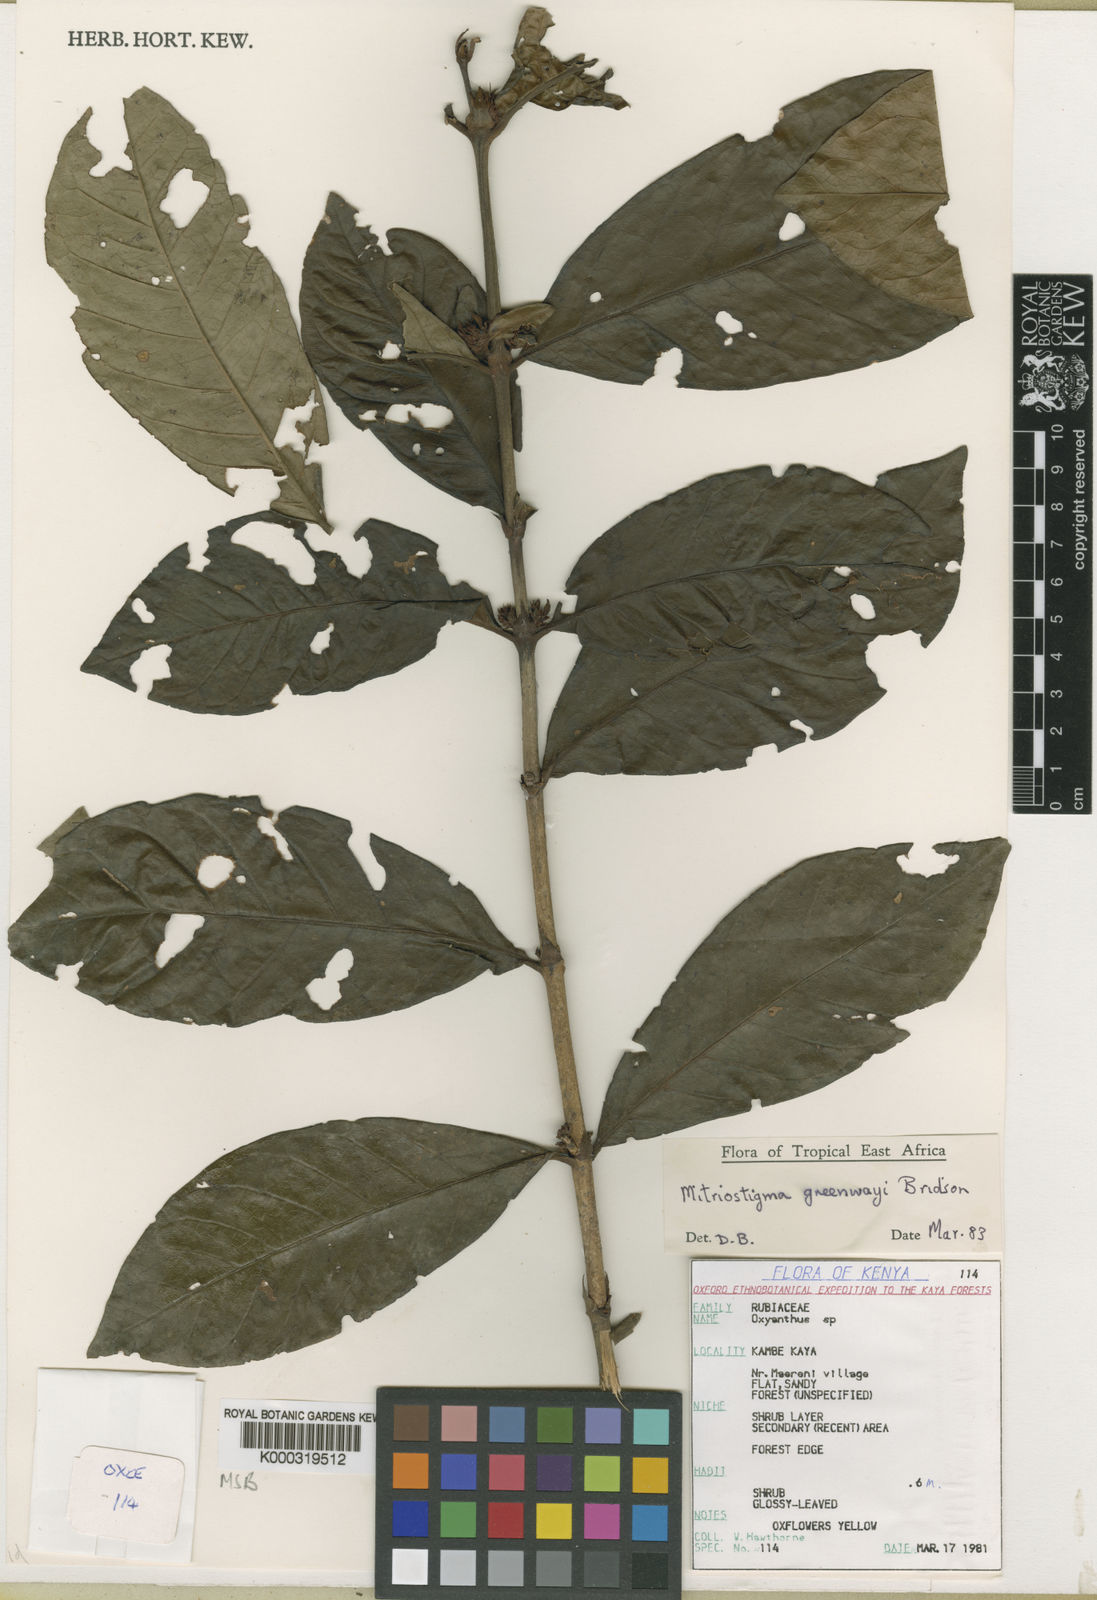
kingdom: Plantae
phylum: Tracheophyta
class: Magnoliopsida
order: Gentianales
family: Rubiaceae
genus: Mitriostigma
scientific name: Mitriostigma greenwayi
